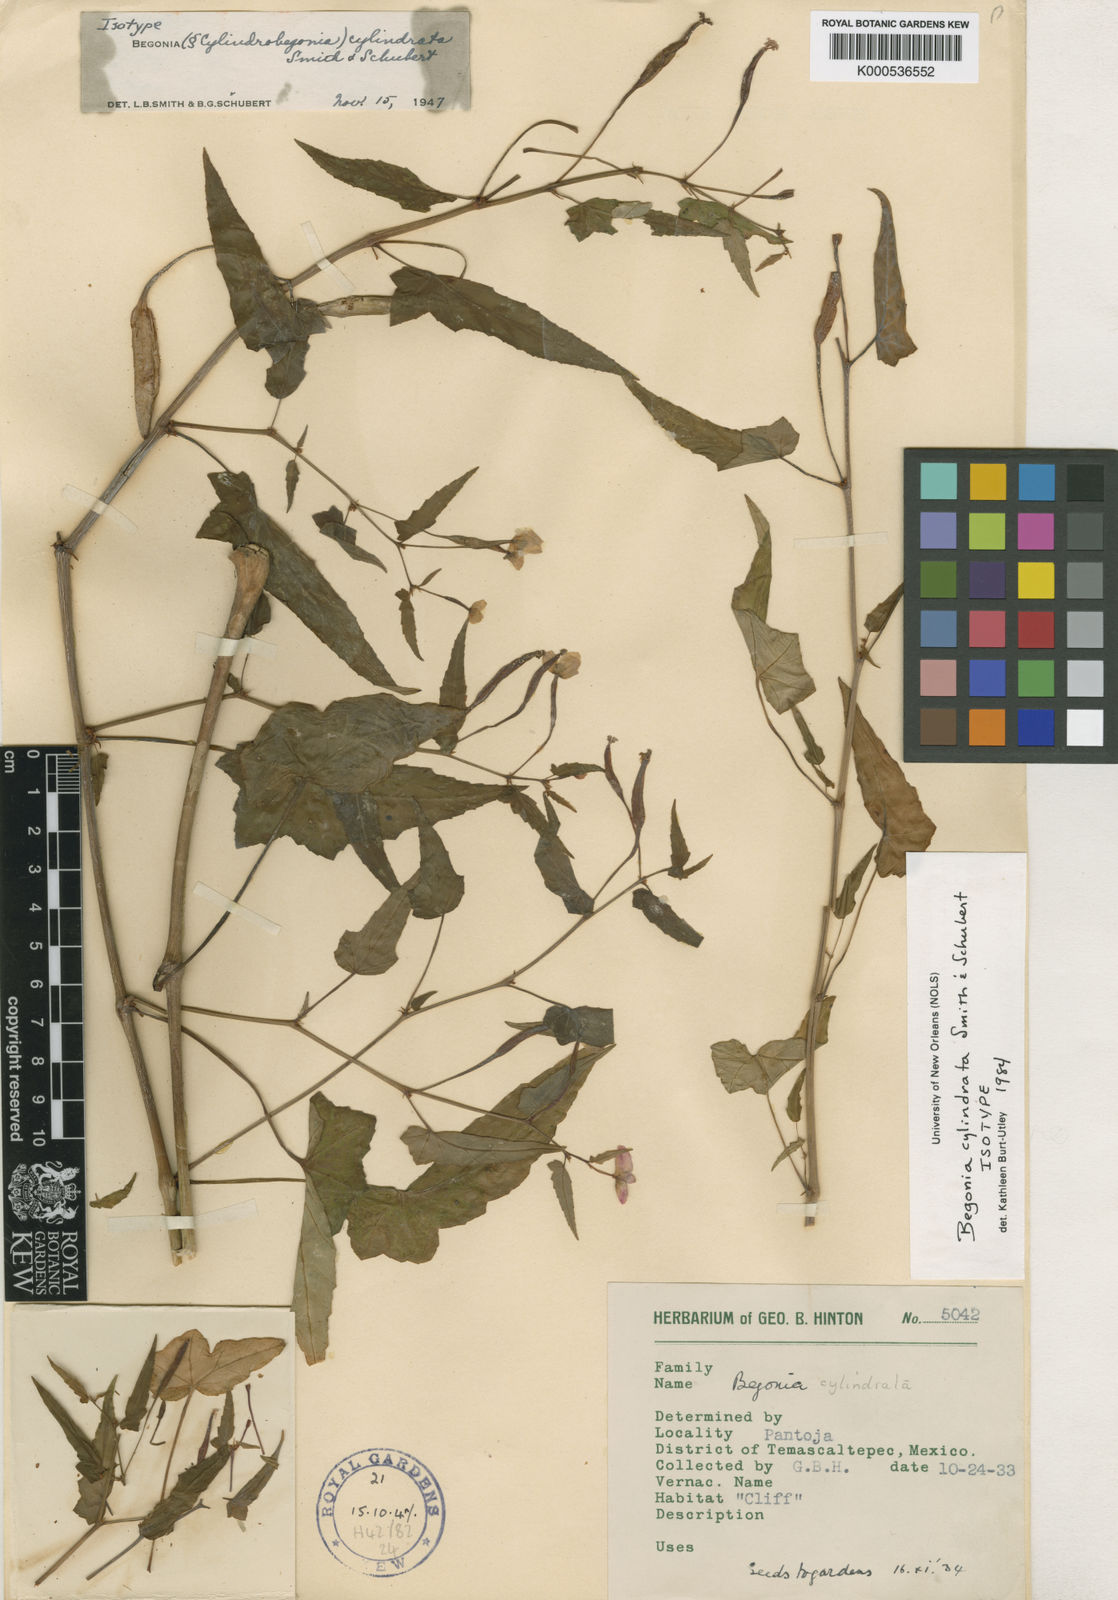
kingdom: Plantae
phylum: Tracheophyta
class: Magnoliopsida
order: Cucurbitales
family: Begoniaceae
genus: Begonia
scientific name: Begonia cylindrata
